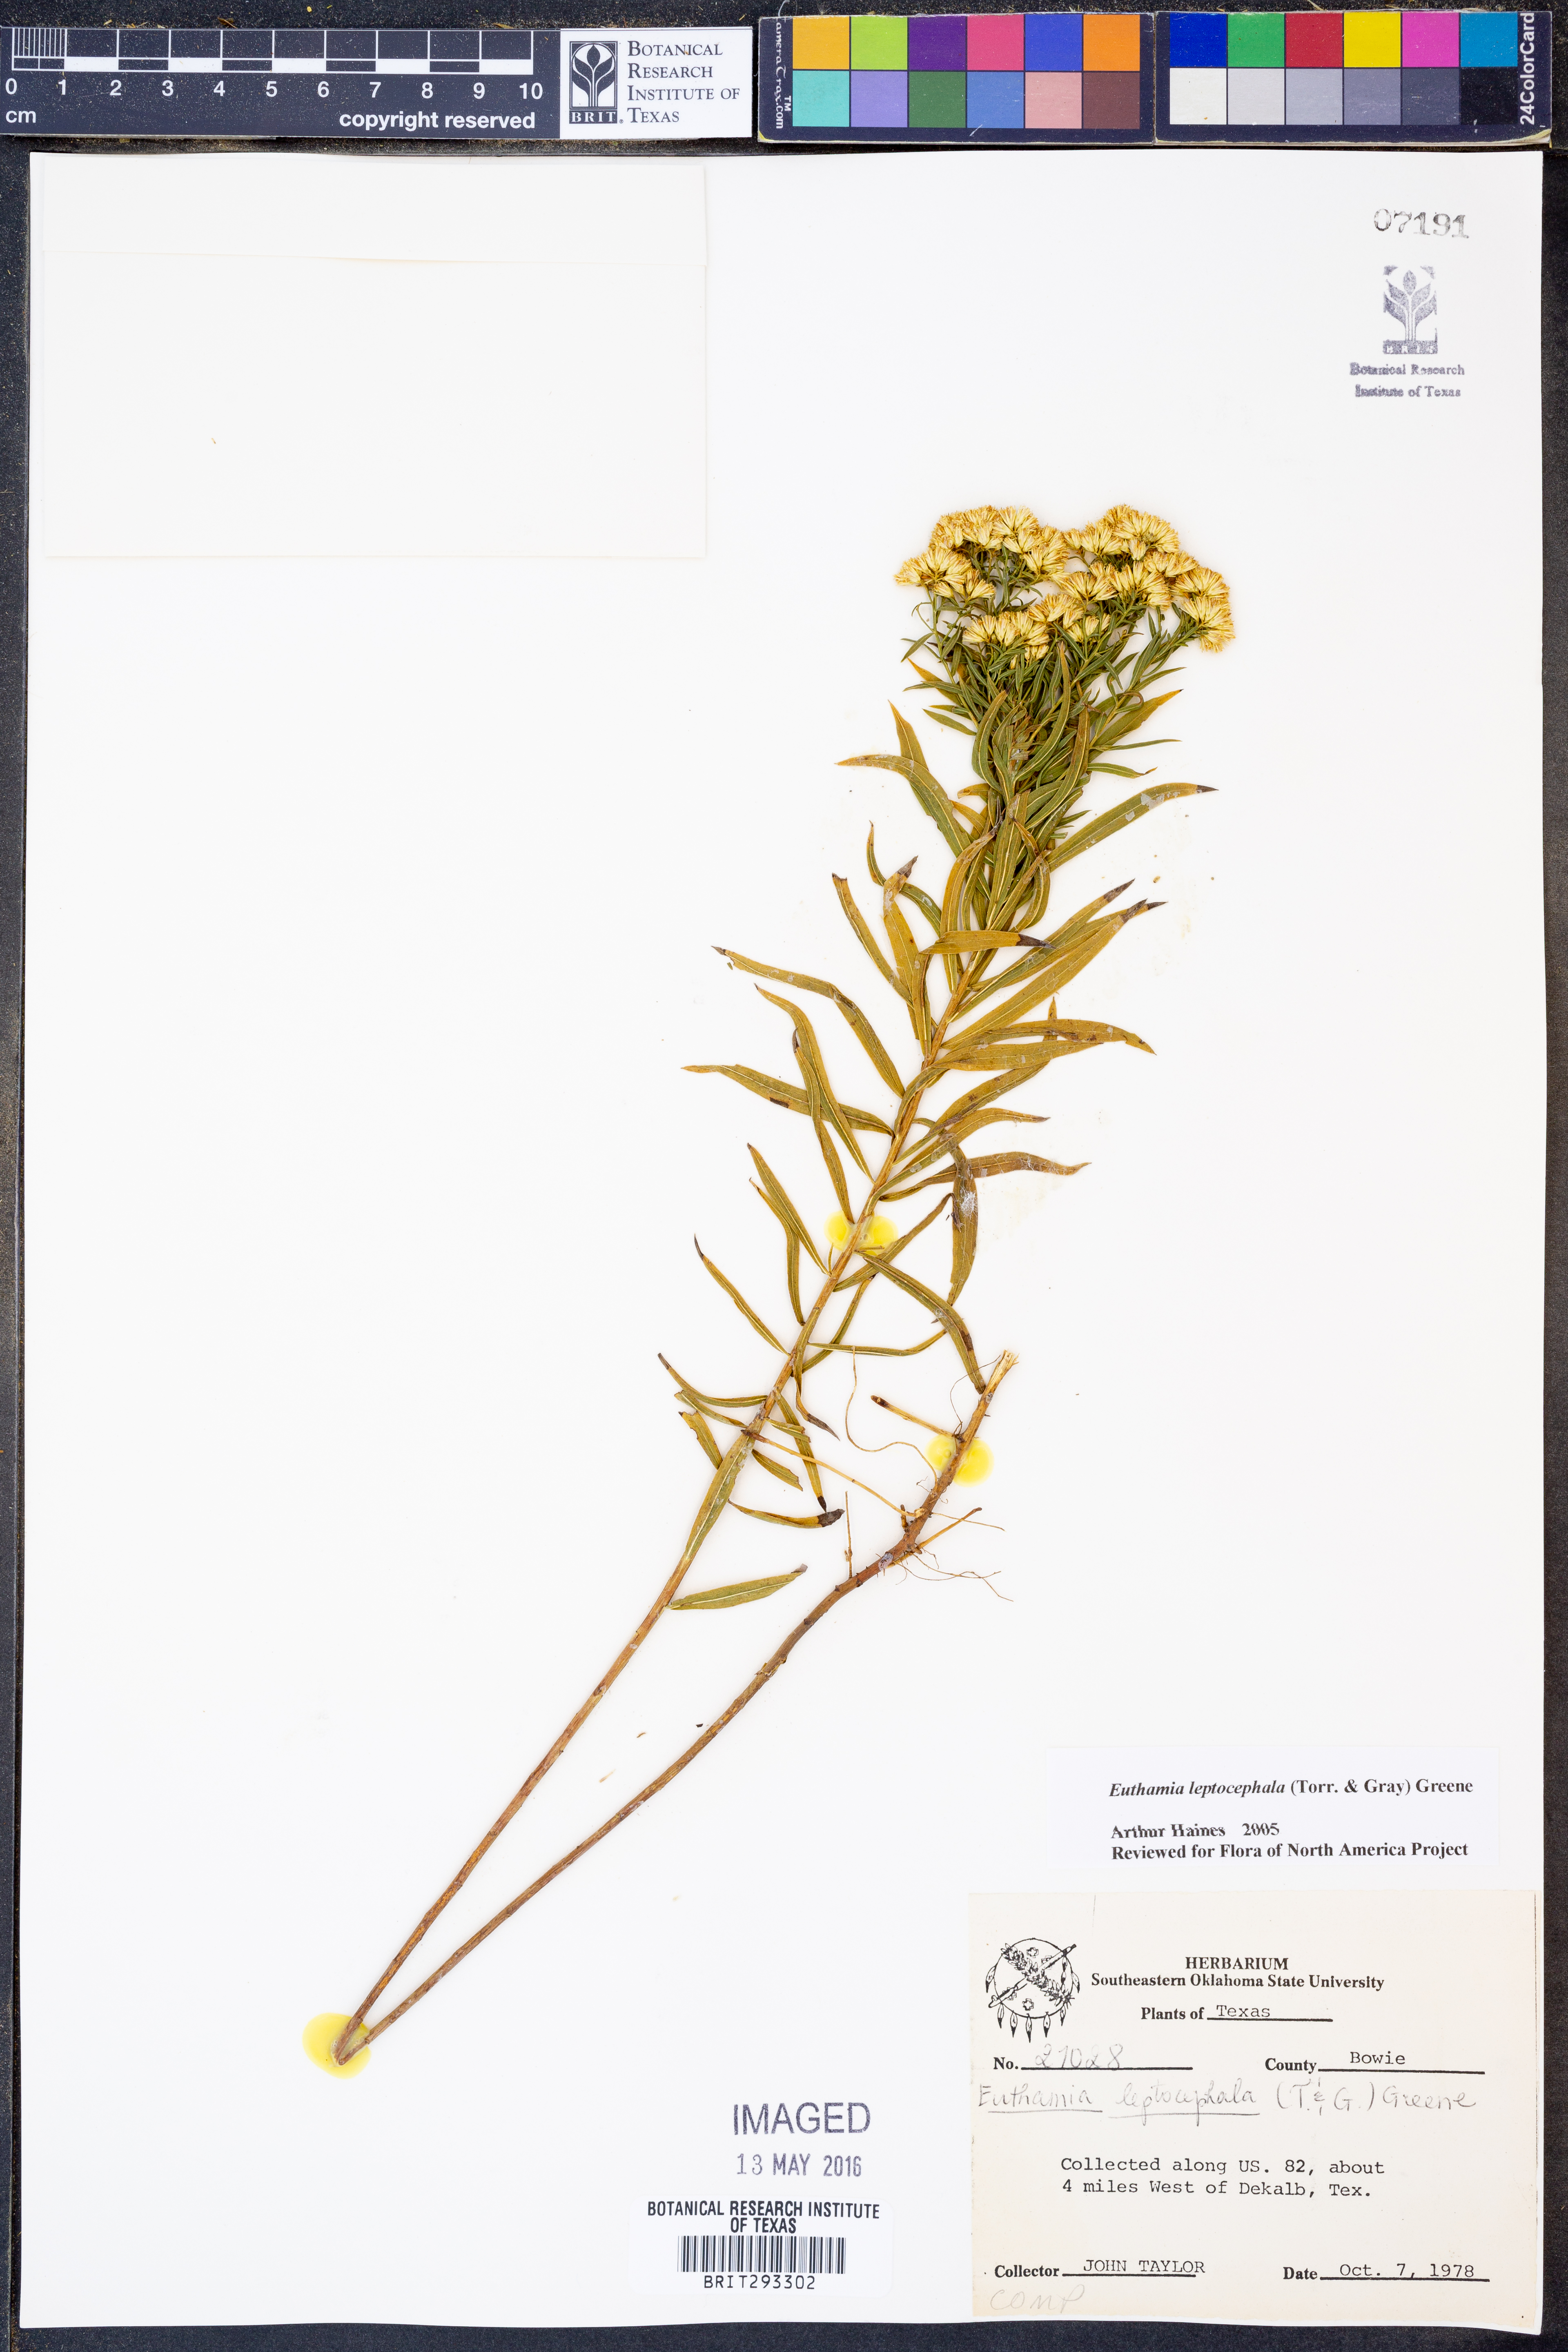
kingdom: Plantae
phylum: Tracheophyta
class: Magnoliopsida
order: Asterales
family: Asteraceae
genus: Euthamia
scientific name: Euthamia leptocephala
